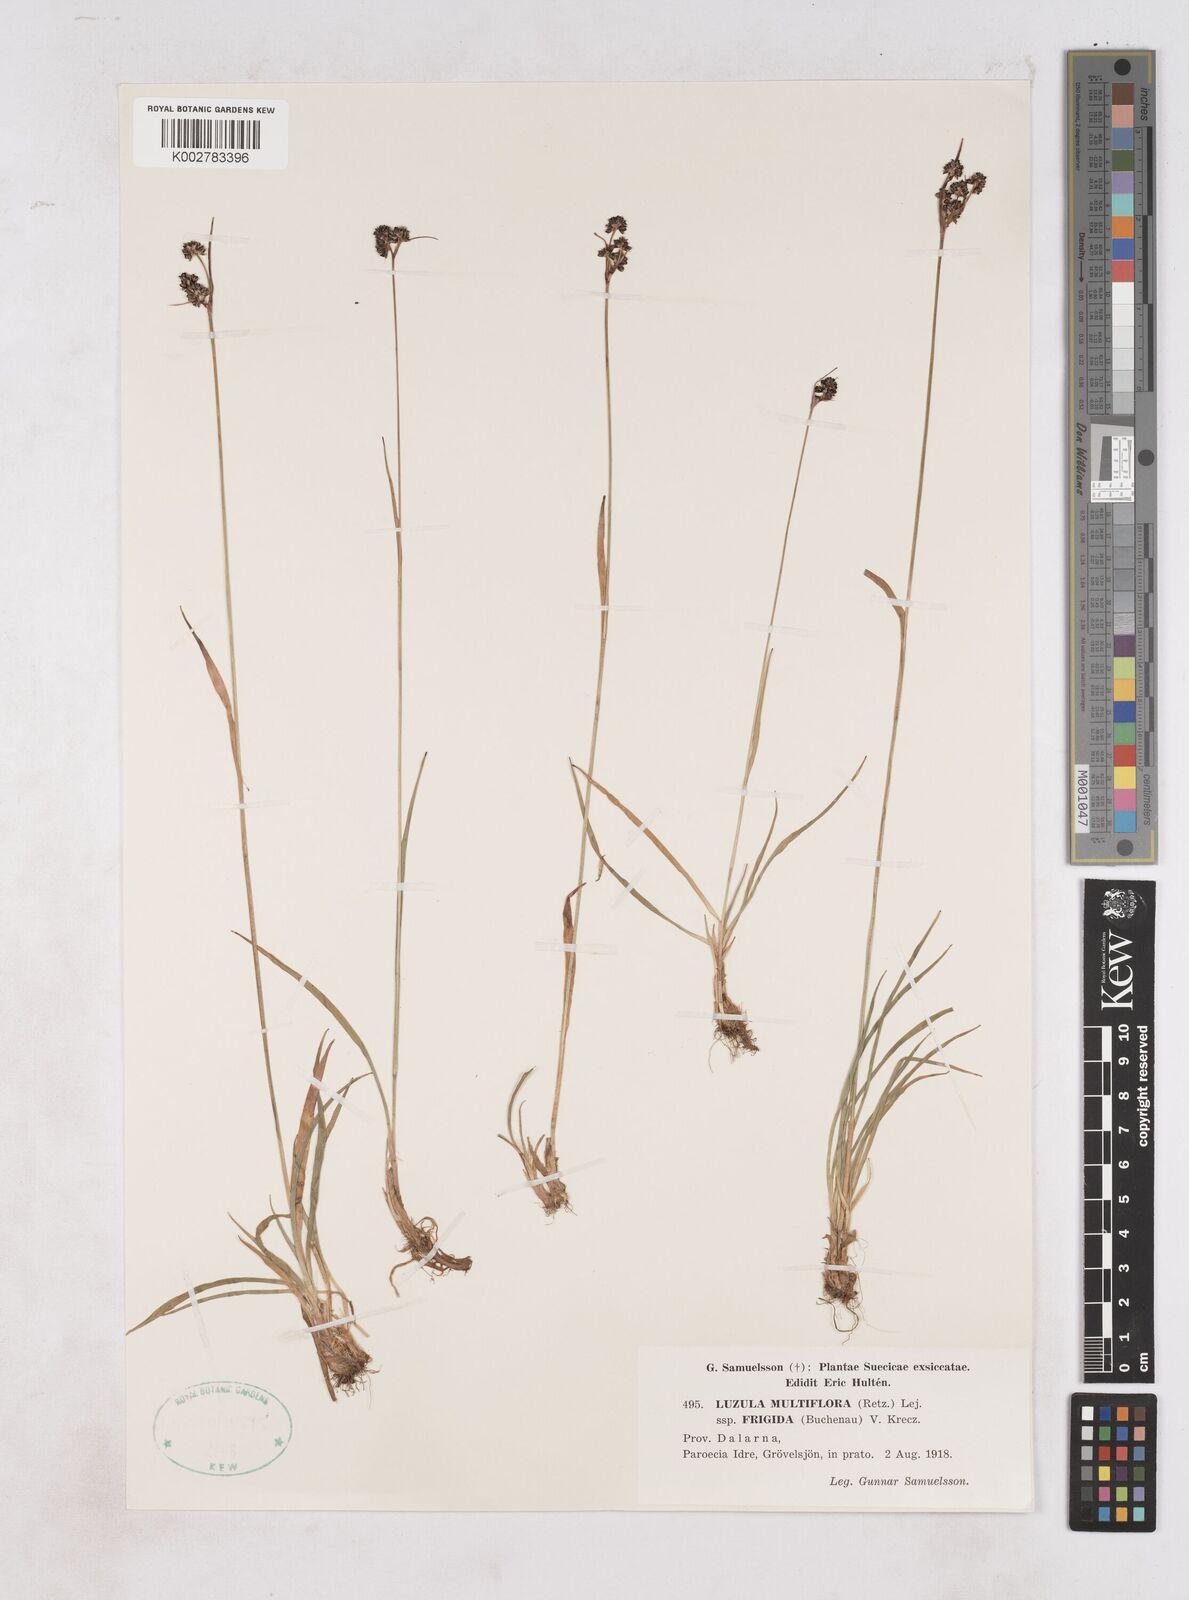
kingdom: Plantae
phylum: Tracheophyta
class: Liliopsida
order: Poales
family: Juncaceae
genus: Luzula
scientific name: Luzula multiflora
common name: Heath wood-rush
